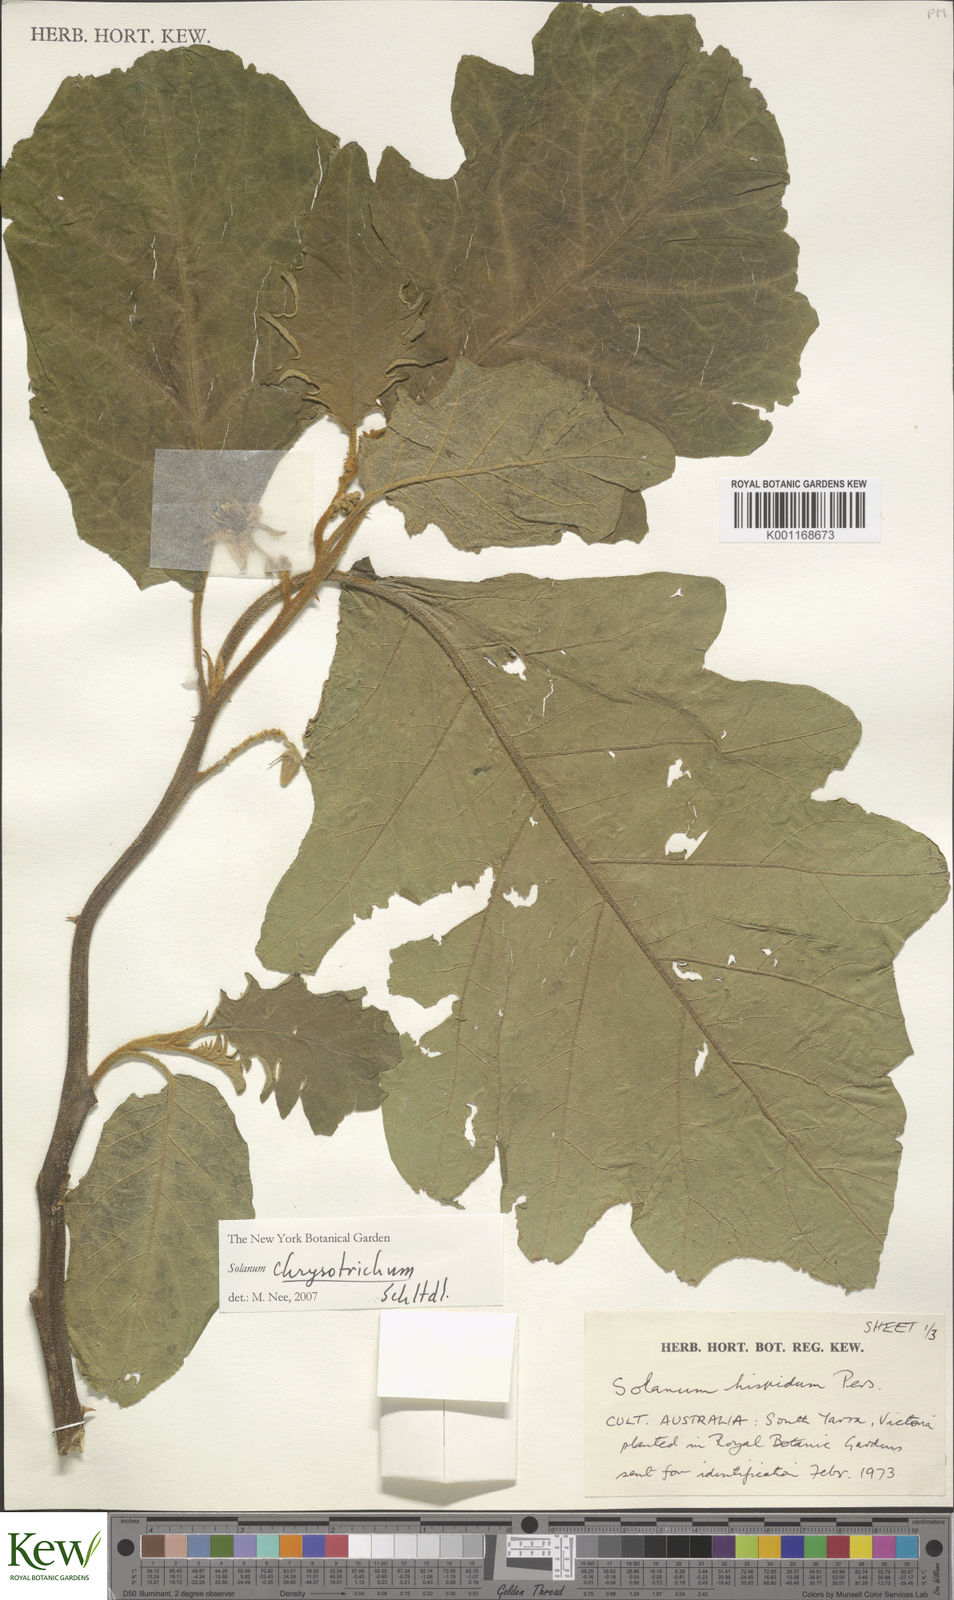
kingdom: Plantae
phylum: Tracheophyta
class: Magnoliopsida
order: Solanales
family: Solanaceae
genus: Solanum
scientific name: Solanum chrysotrichum
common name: Nightshade
